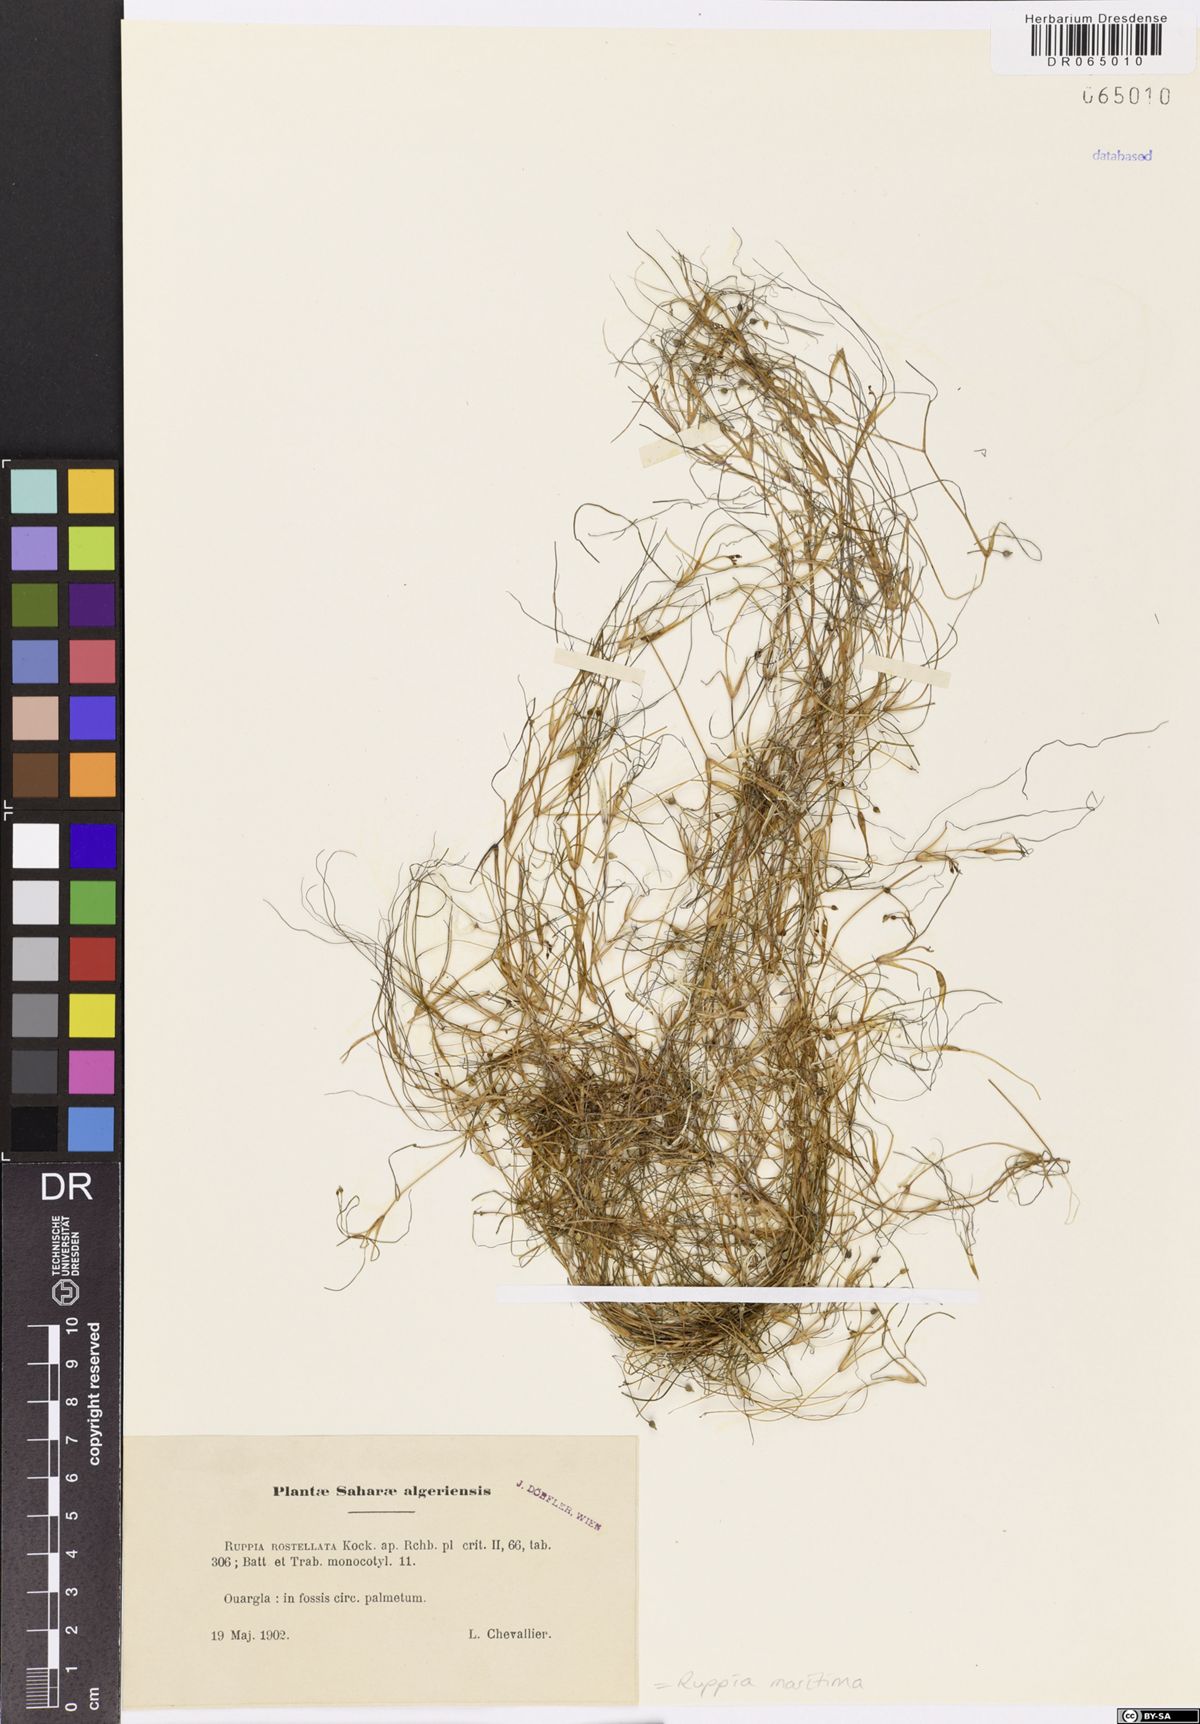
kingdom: Plantae
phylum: Tracheophyta
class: Liliopsida
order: Alismatales
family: Ruppiaceae
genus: Ruppia
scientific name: Ruppia maritima
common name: Beaked tasselweed
